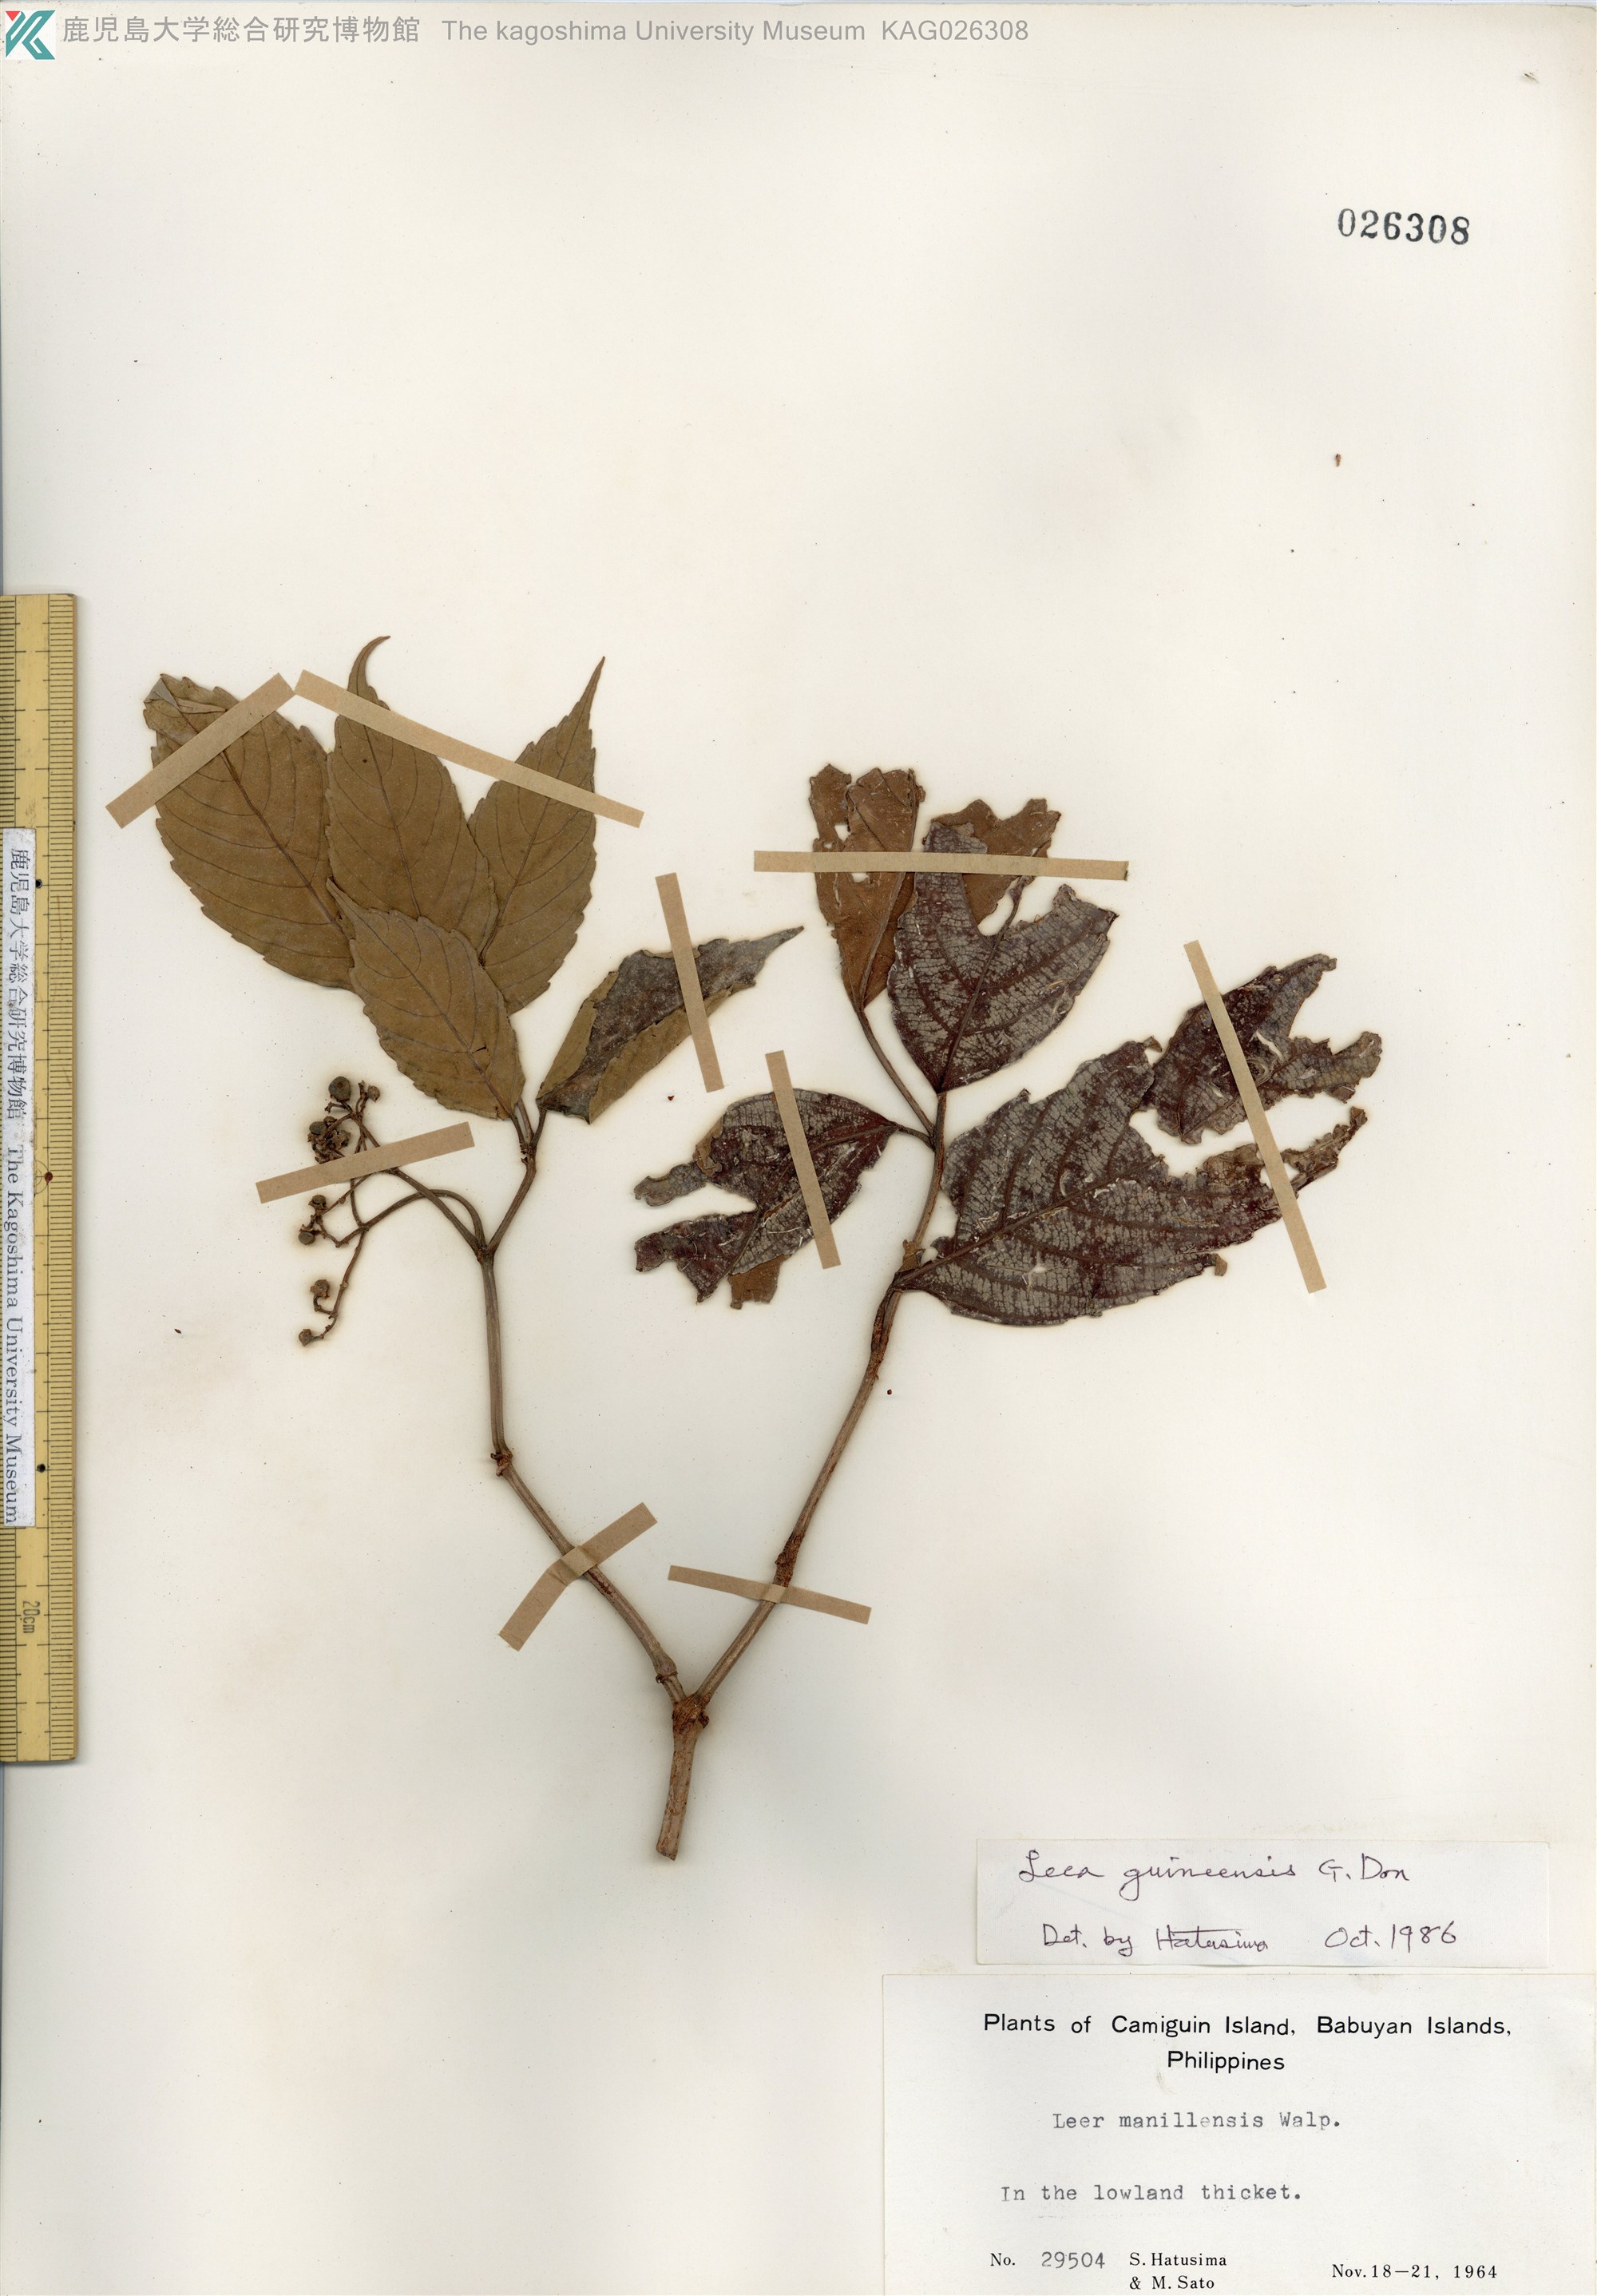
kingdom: Plantae
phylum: Tracheophyta
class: Magnoliopsida
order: Vitales
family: Vitaceae
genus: Leea
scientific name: Leea guineensis
